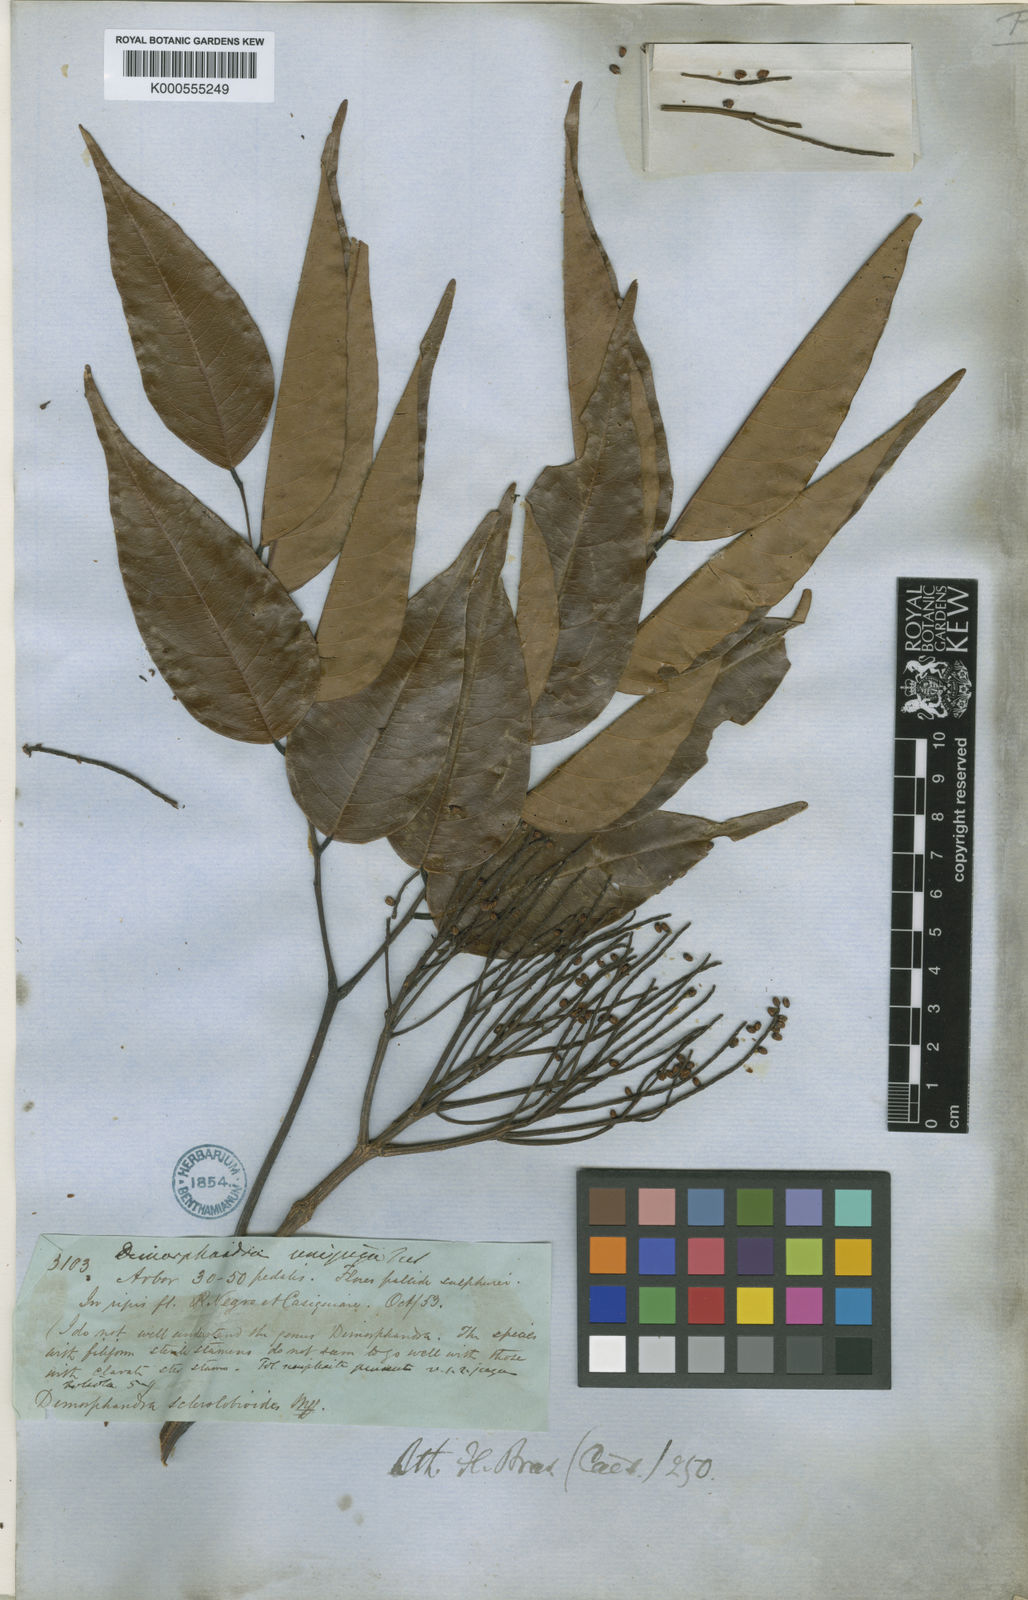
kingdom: Plantae
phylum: Tracheophyta
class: Magnoliopsida
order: Fabales
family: Fabaceae
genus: Dimorphandra
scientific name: Dimorphandra unijuga
